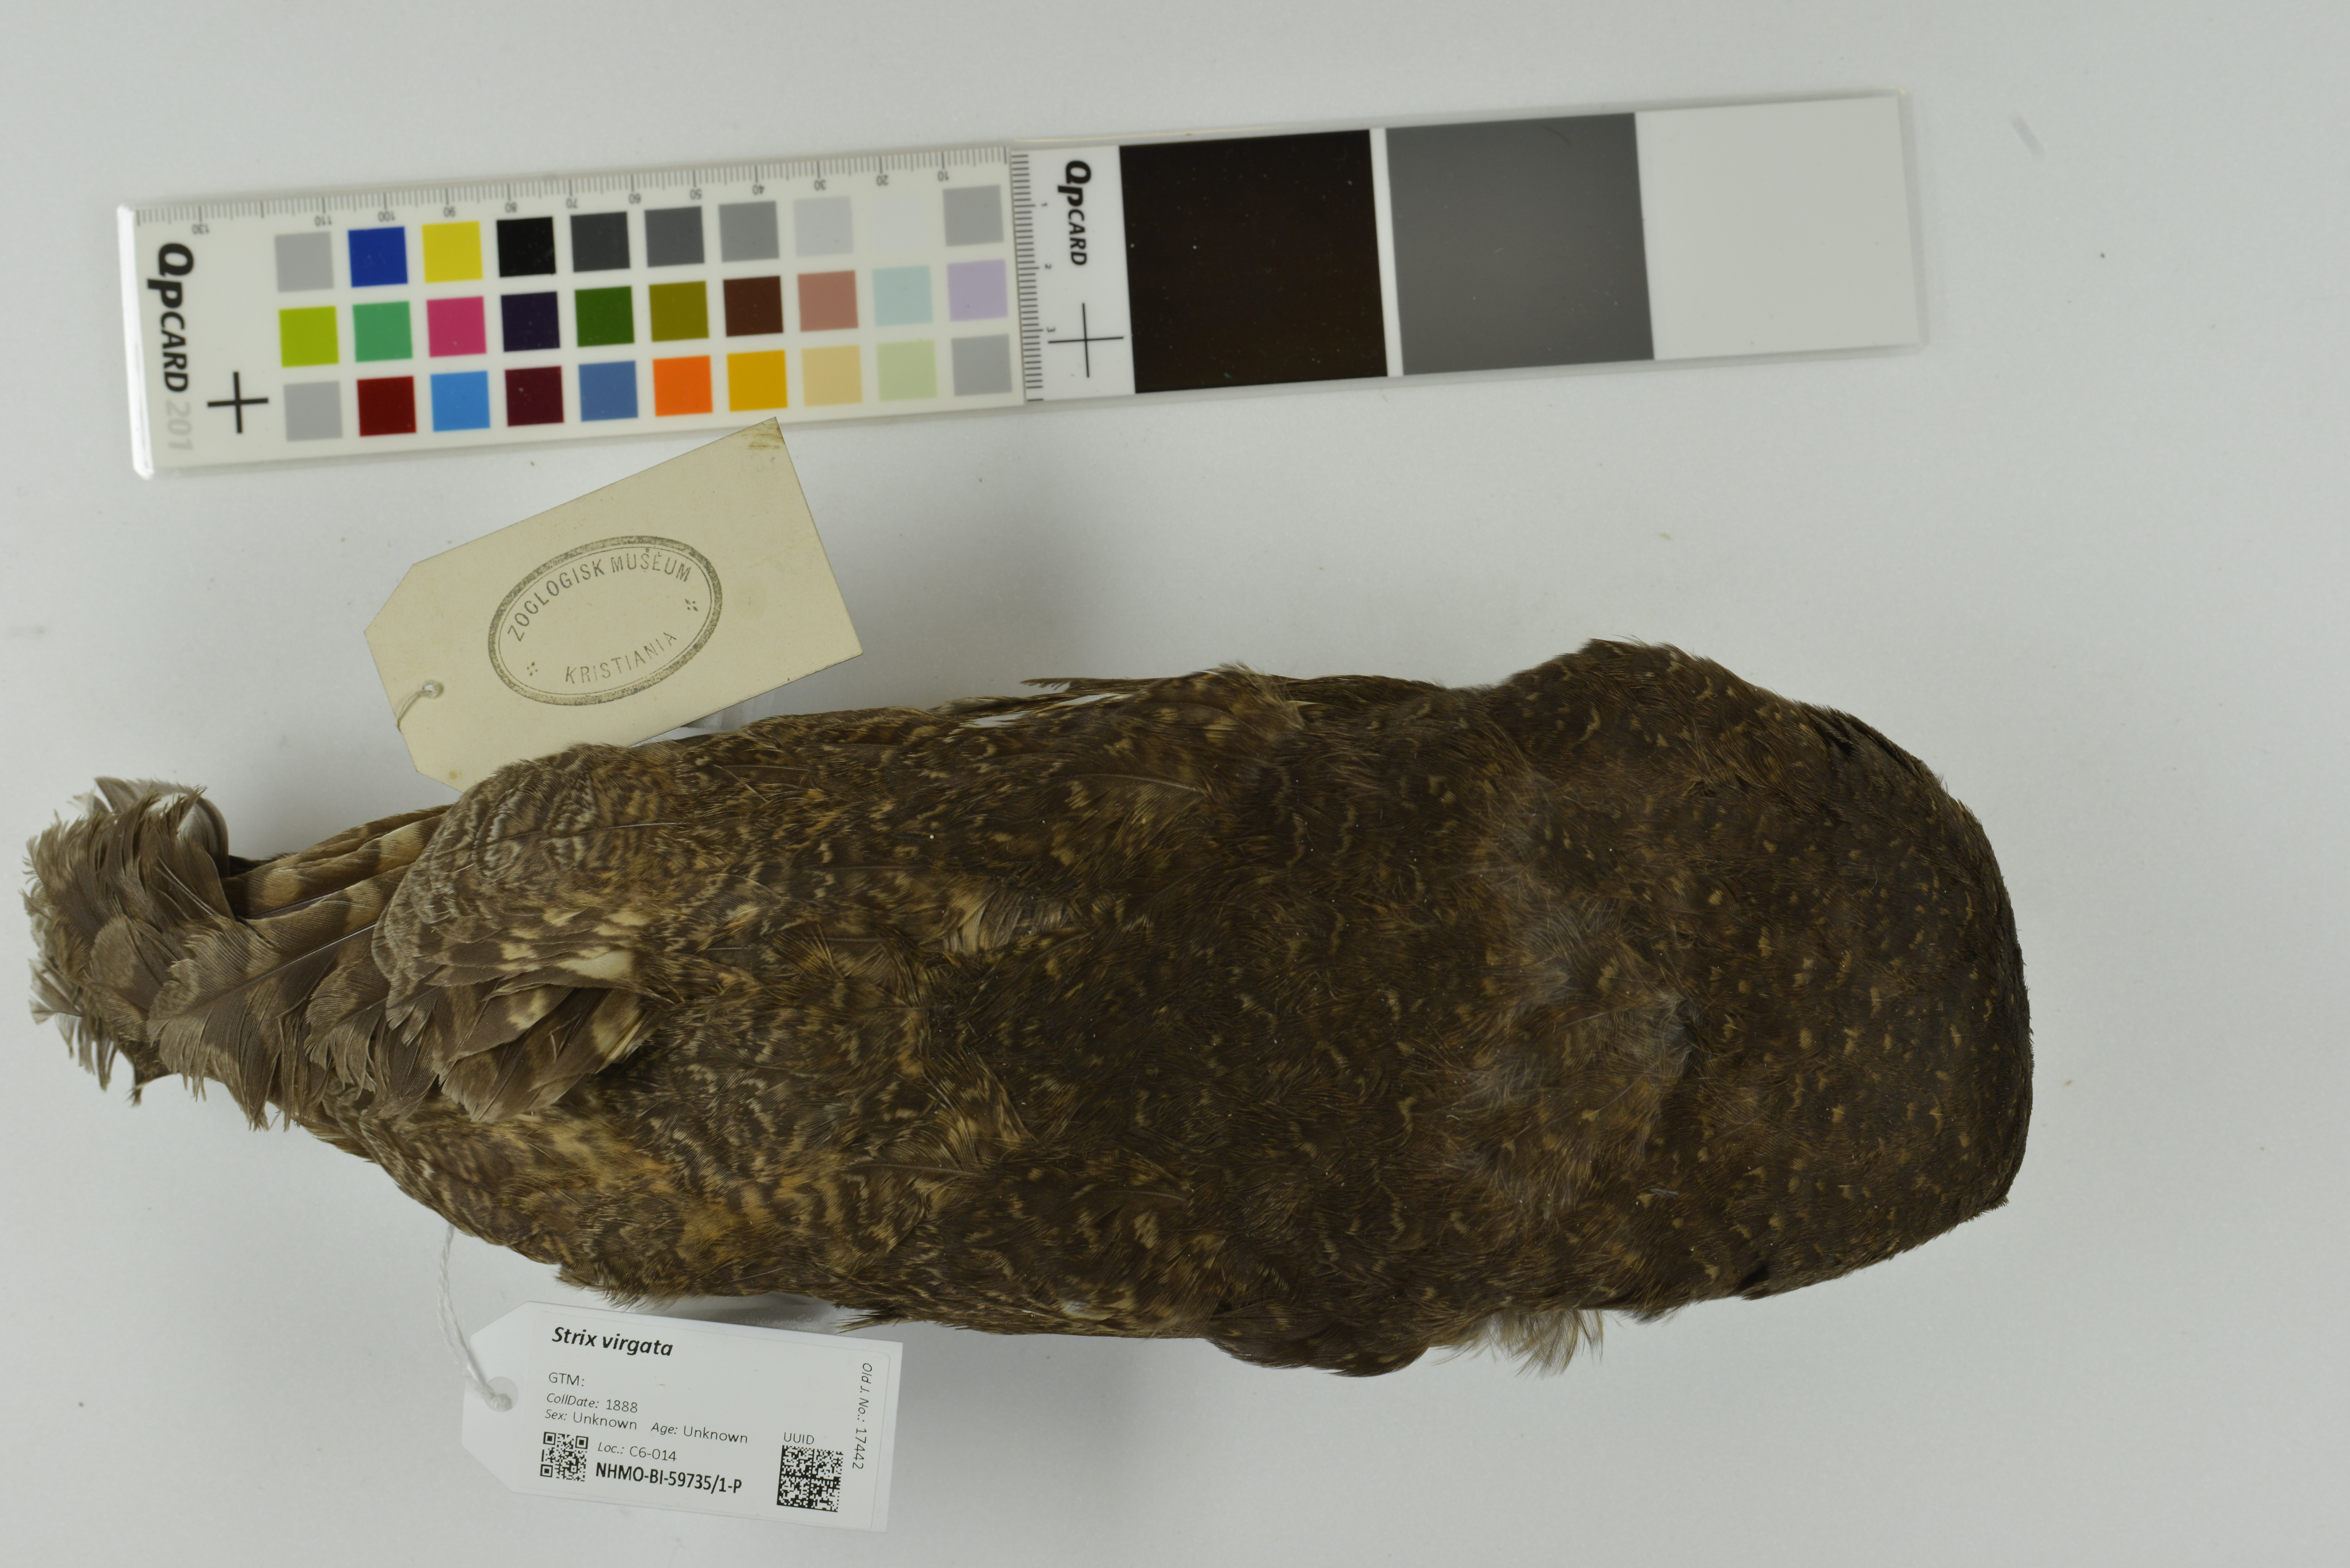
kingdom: Animalia
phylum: Chordata
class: Aves
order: Strigiformes
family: Strigidae
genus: Strix
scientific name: Strix virgata
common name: Mottled owl
